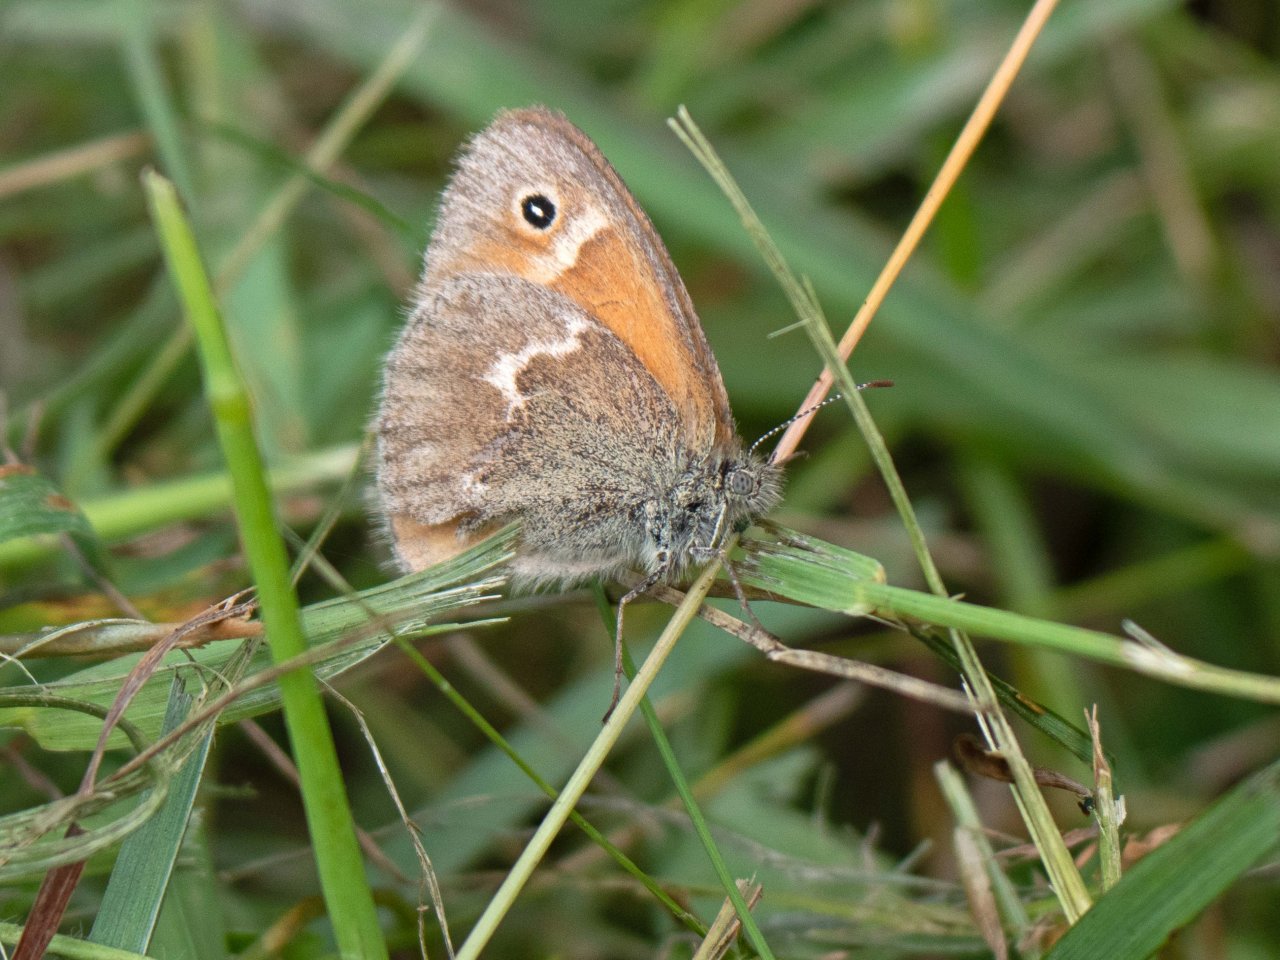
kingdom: Animalia
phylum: Arthropoda
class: Insecta
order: Lepidoptera
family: Nymphalidae
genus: Coenonympha
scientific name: Coenonympha tullia
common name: Large Heath
